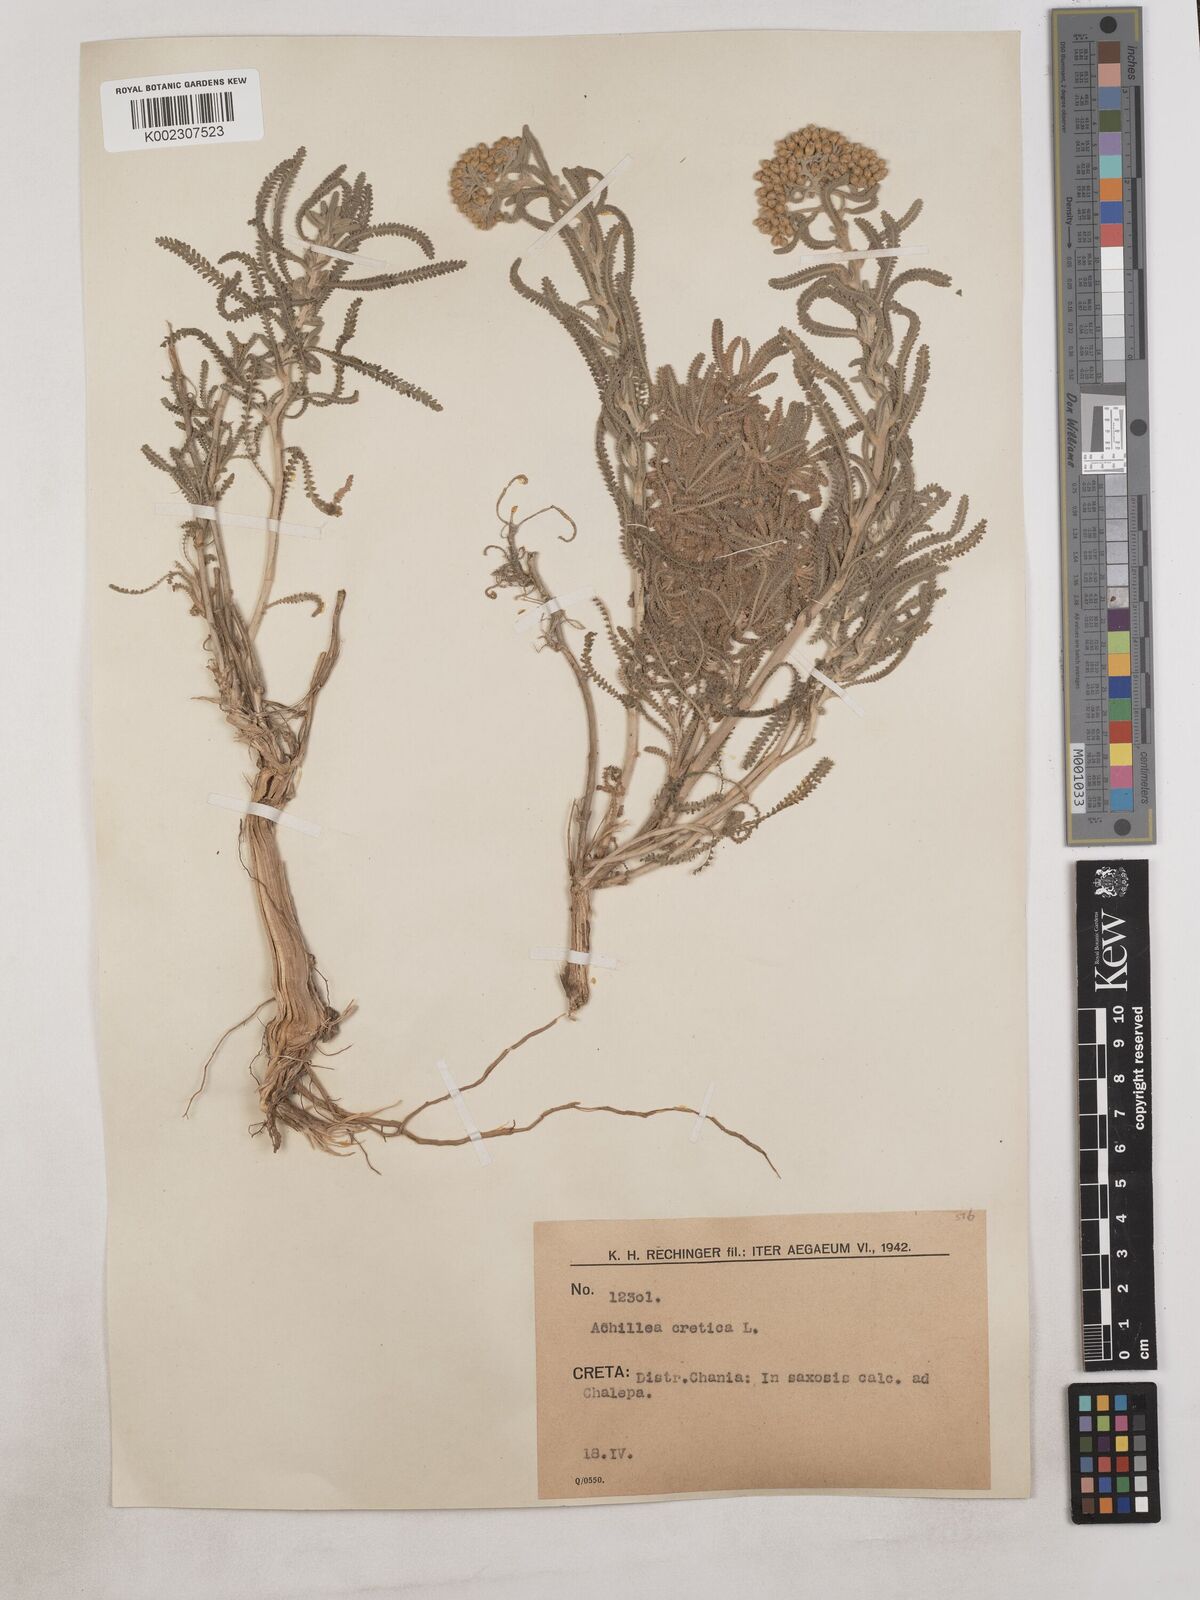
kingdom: Plantae
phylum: Tracheophyta
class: Magnoliopsida
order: Asterales
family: Asteraceae
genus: Achillea
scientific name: Achillea cretica
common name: Chamomile-leaved lavender-cotton
